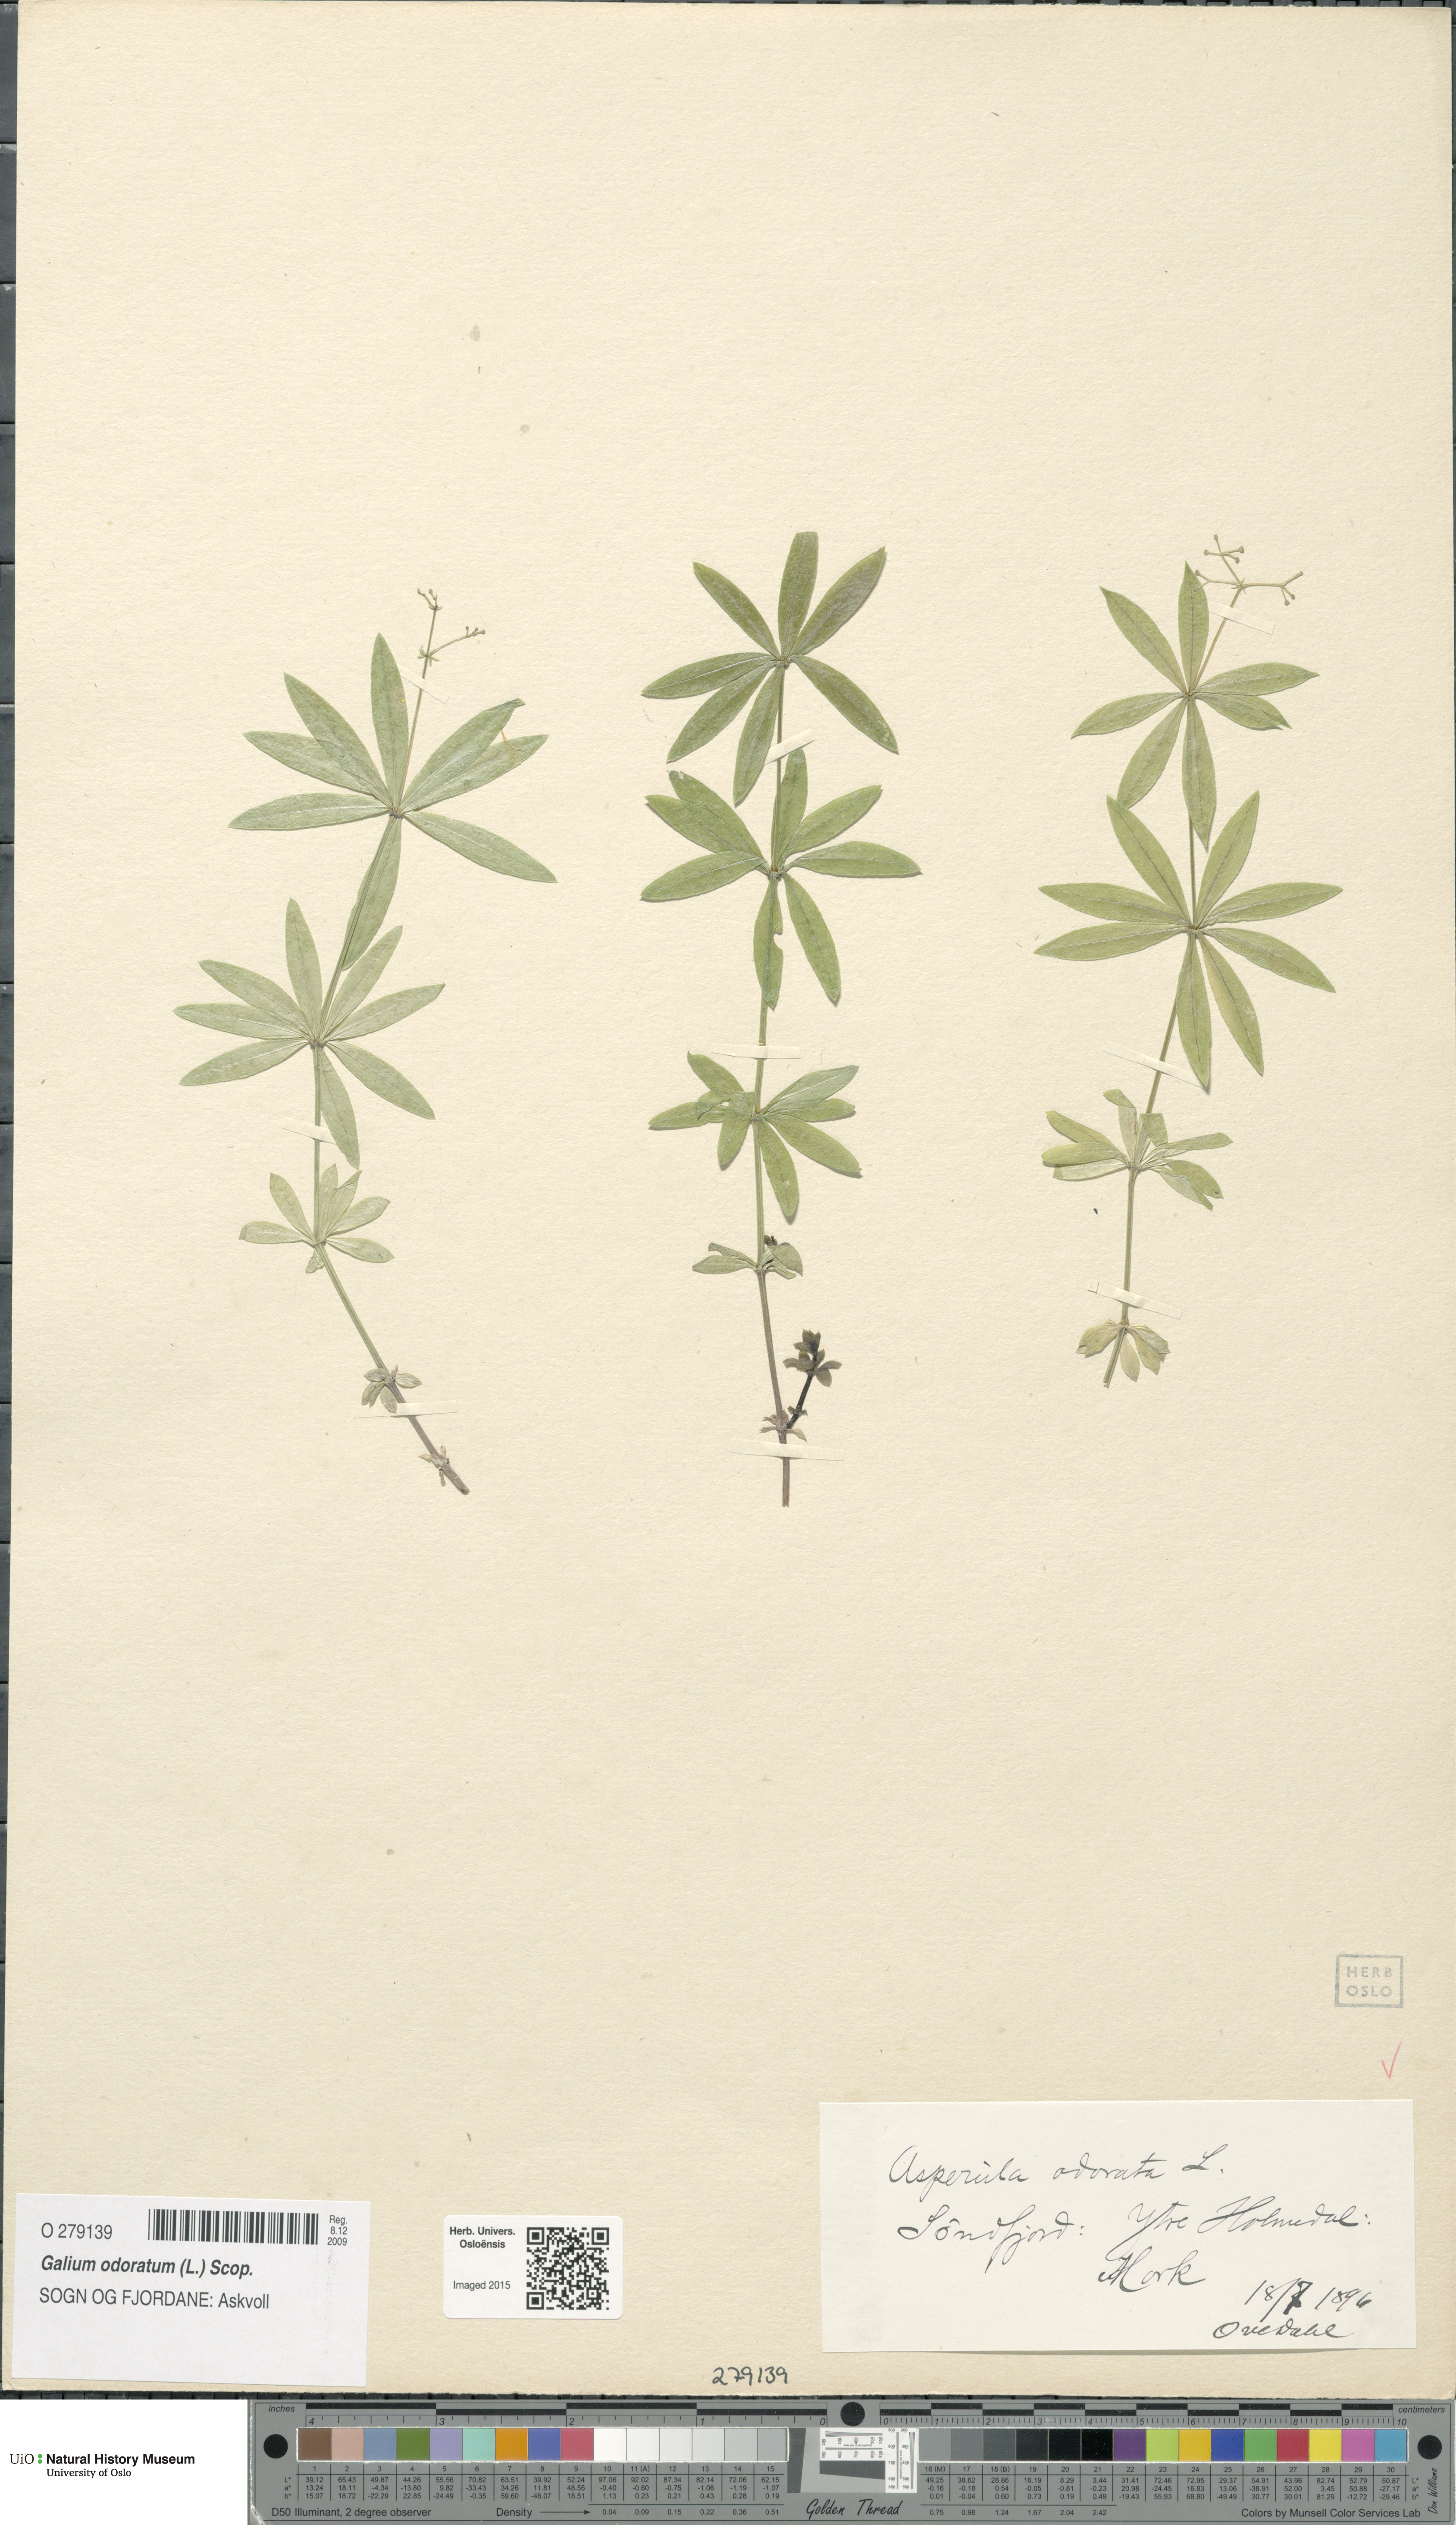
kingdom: Plantae
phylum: Tracheophyta
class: Magnoliopsida
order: Gentianales
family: Rubiaceae
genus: Galium
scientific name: Galium odoratum
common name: Sweet woodruff
